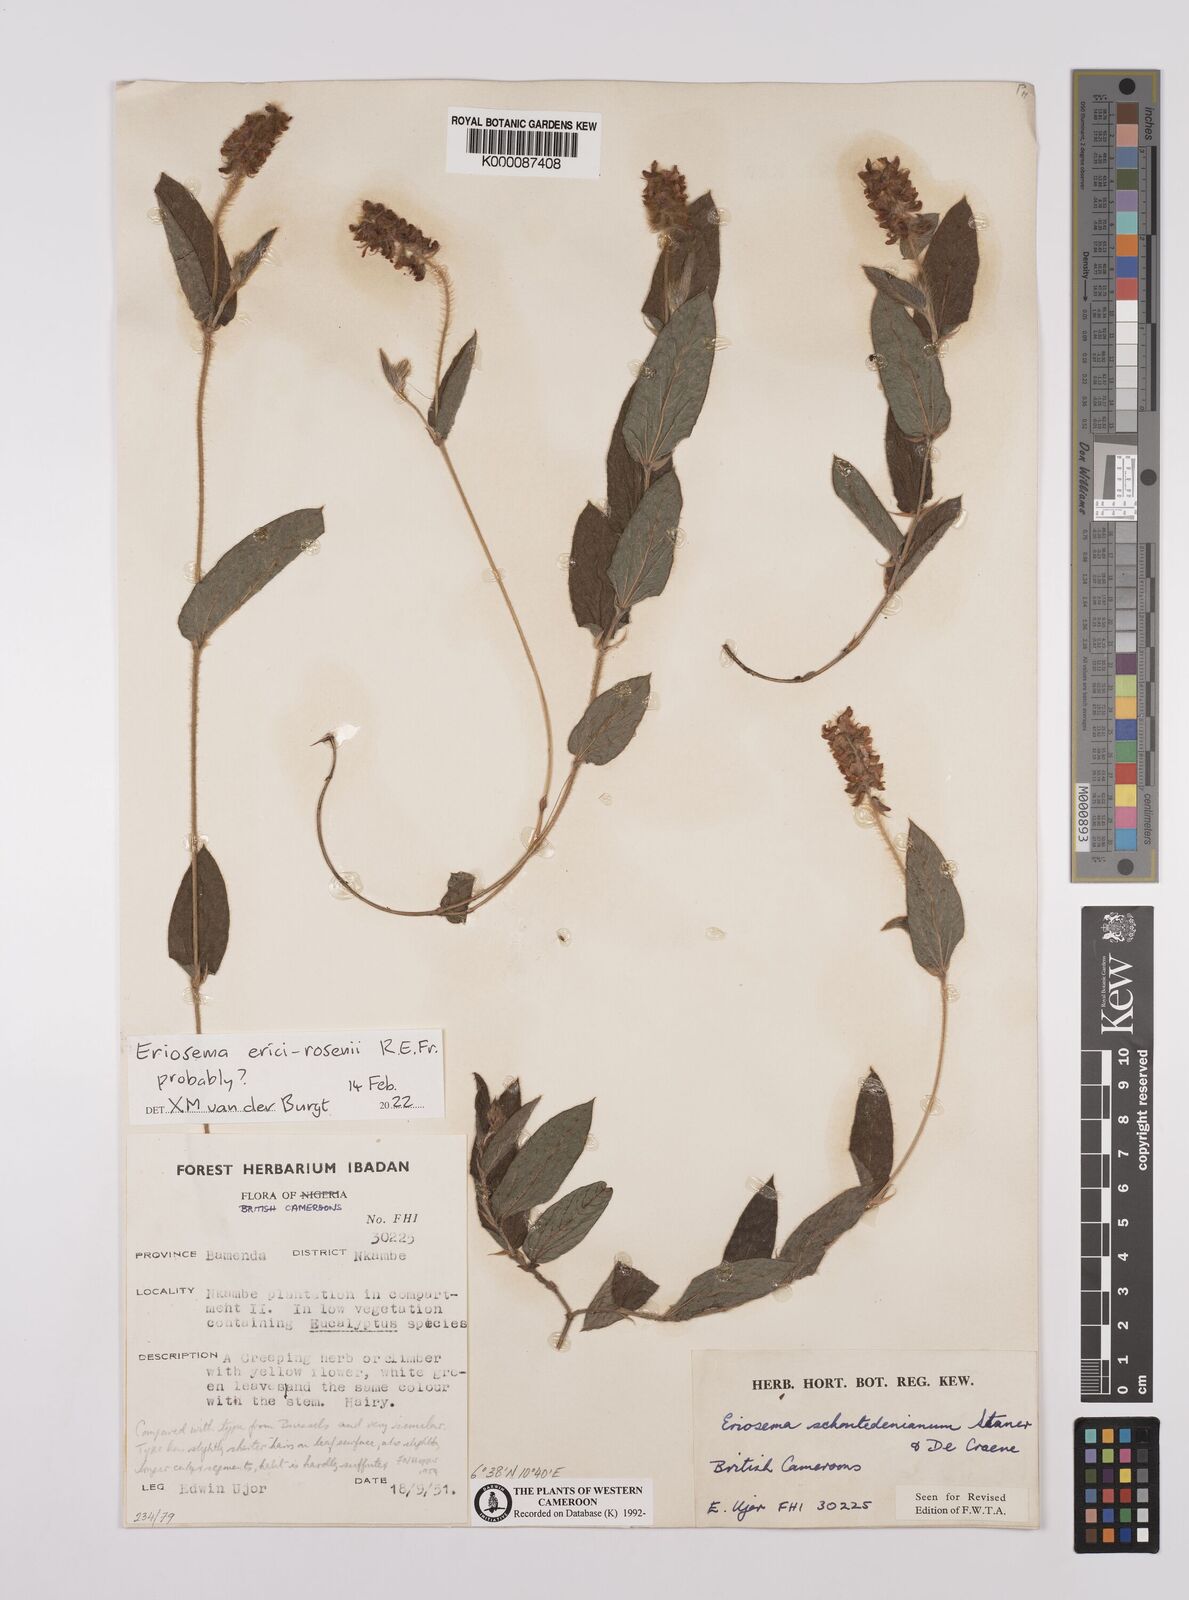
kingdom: Plantae
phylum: Tracheophyta
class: Magnoliopsida
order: Fabales
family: Fabaceae
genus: Eriosema
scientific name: Eriosema erici-rosenii
